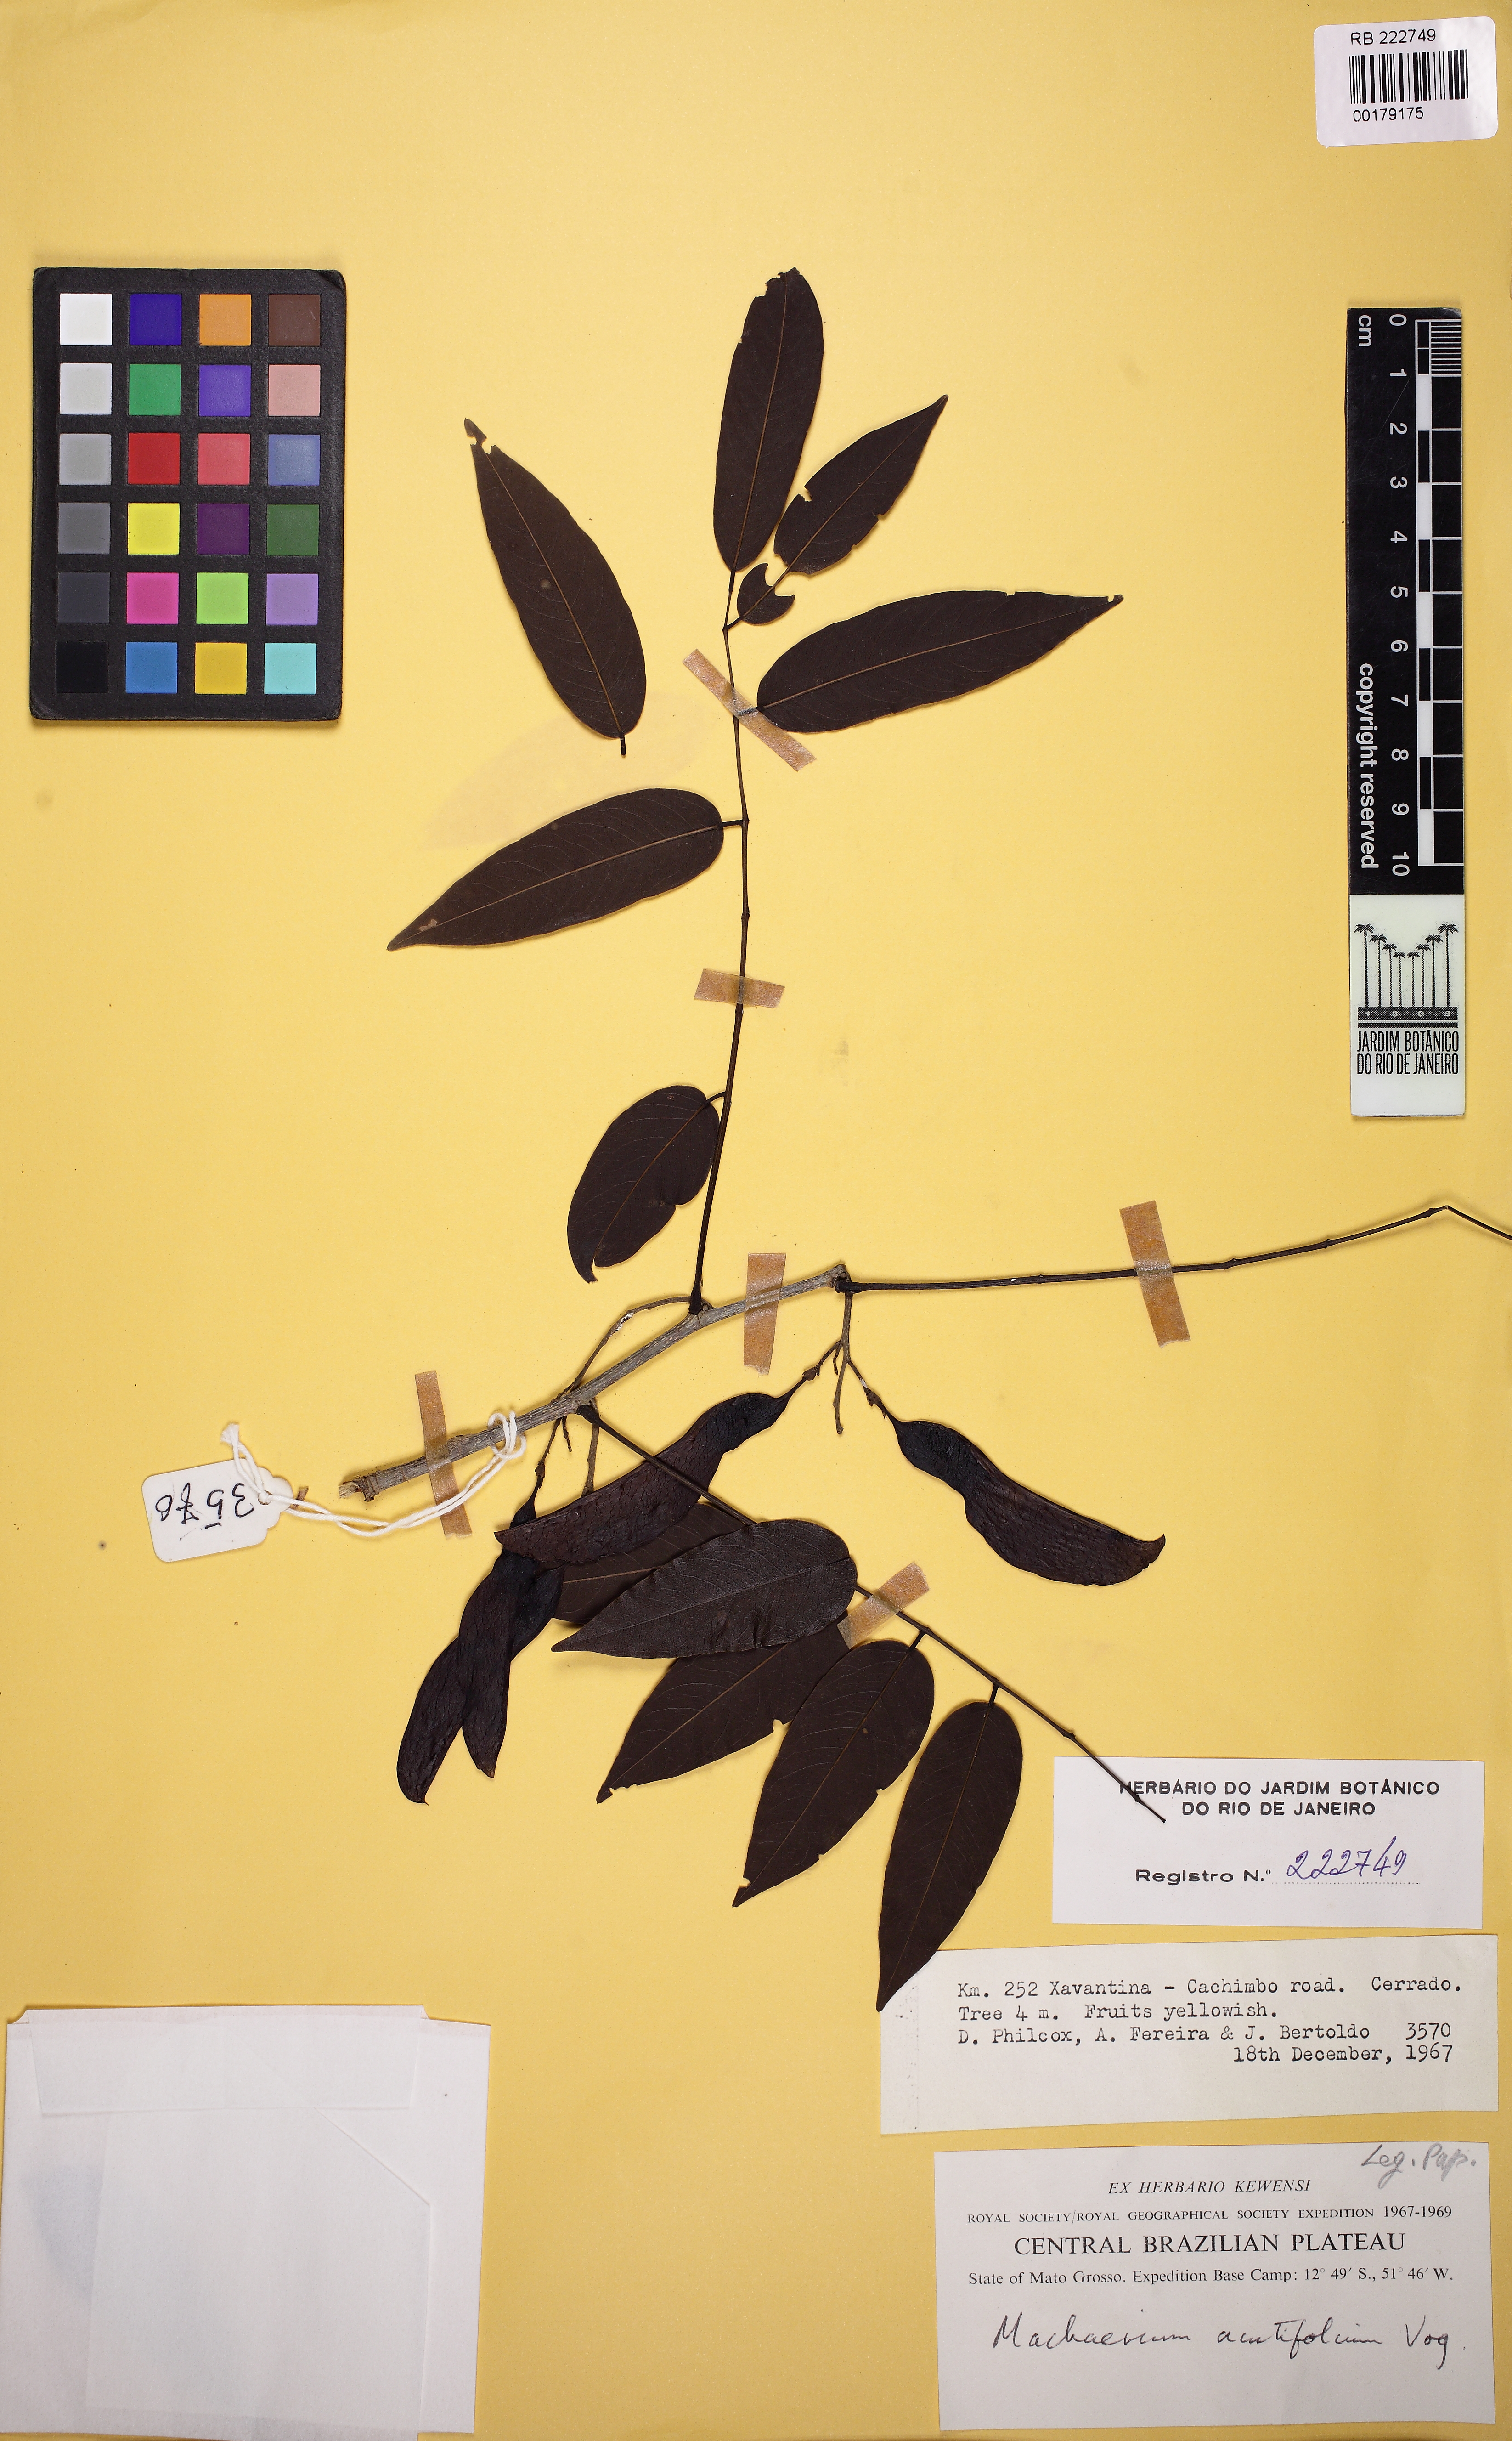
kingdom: Plantae
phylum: Tracheophyta
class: Magnoliopsida
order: Fabales
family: Fabaceae
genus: Machaerium
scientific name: Machaerium acutifolium
